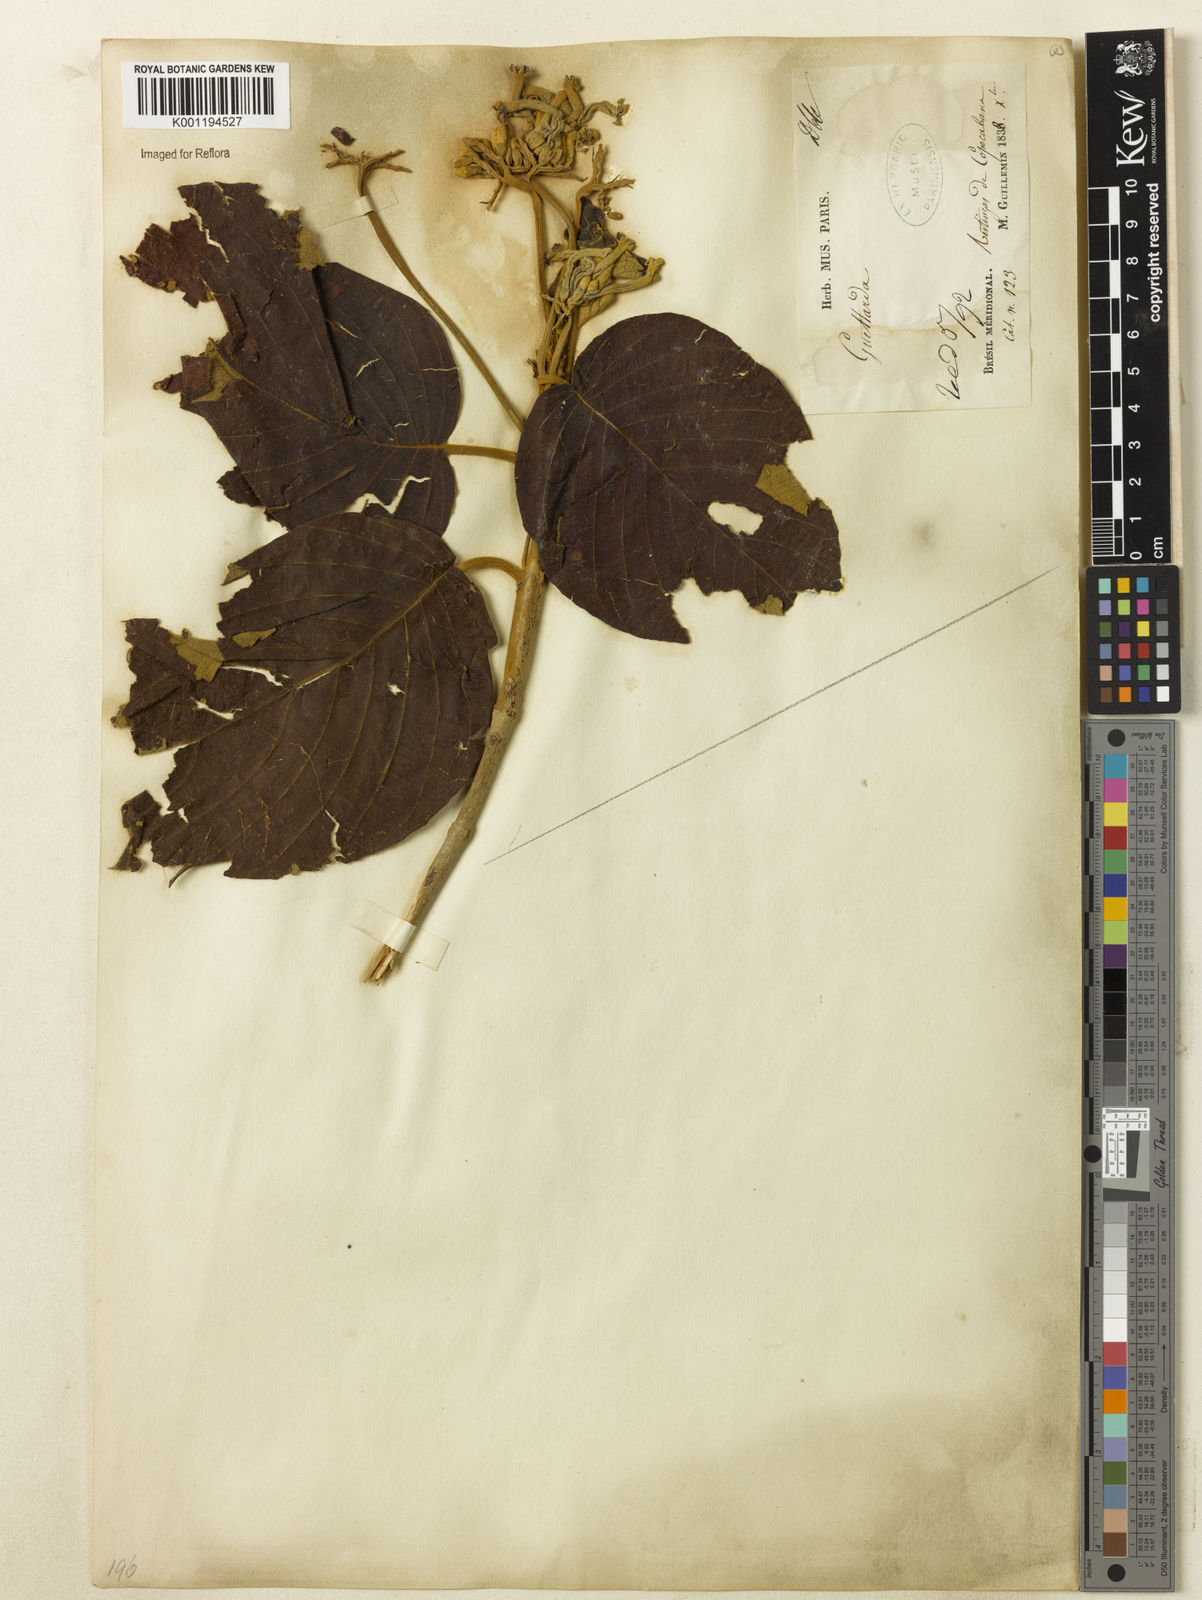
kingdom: Plantae
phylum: Tracheophyta
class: Magnoliopsida
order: Gentianales
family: Rubiaceae
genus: Guettarda
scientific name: Guettarda
